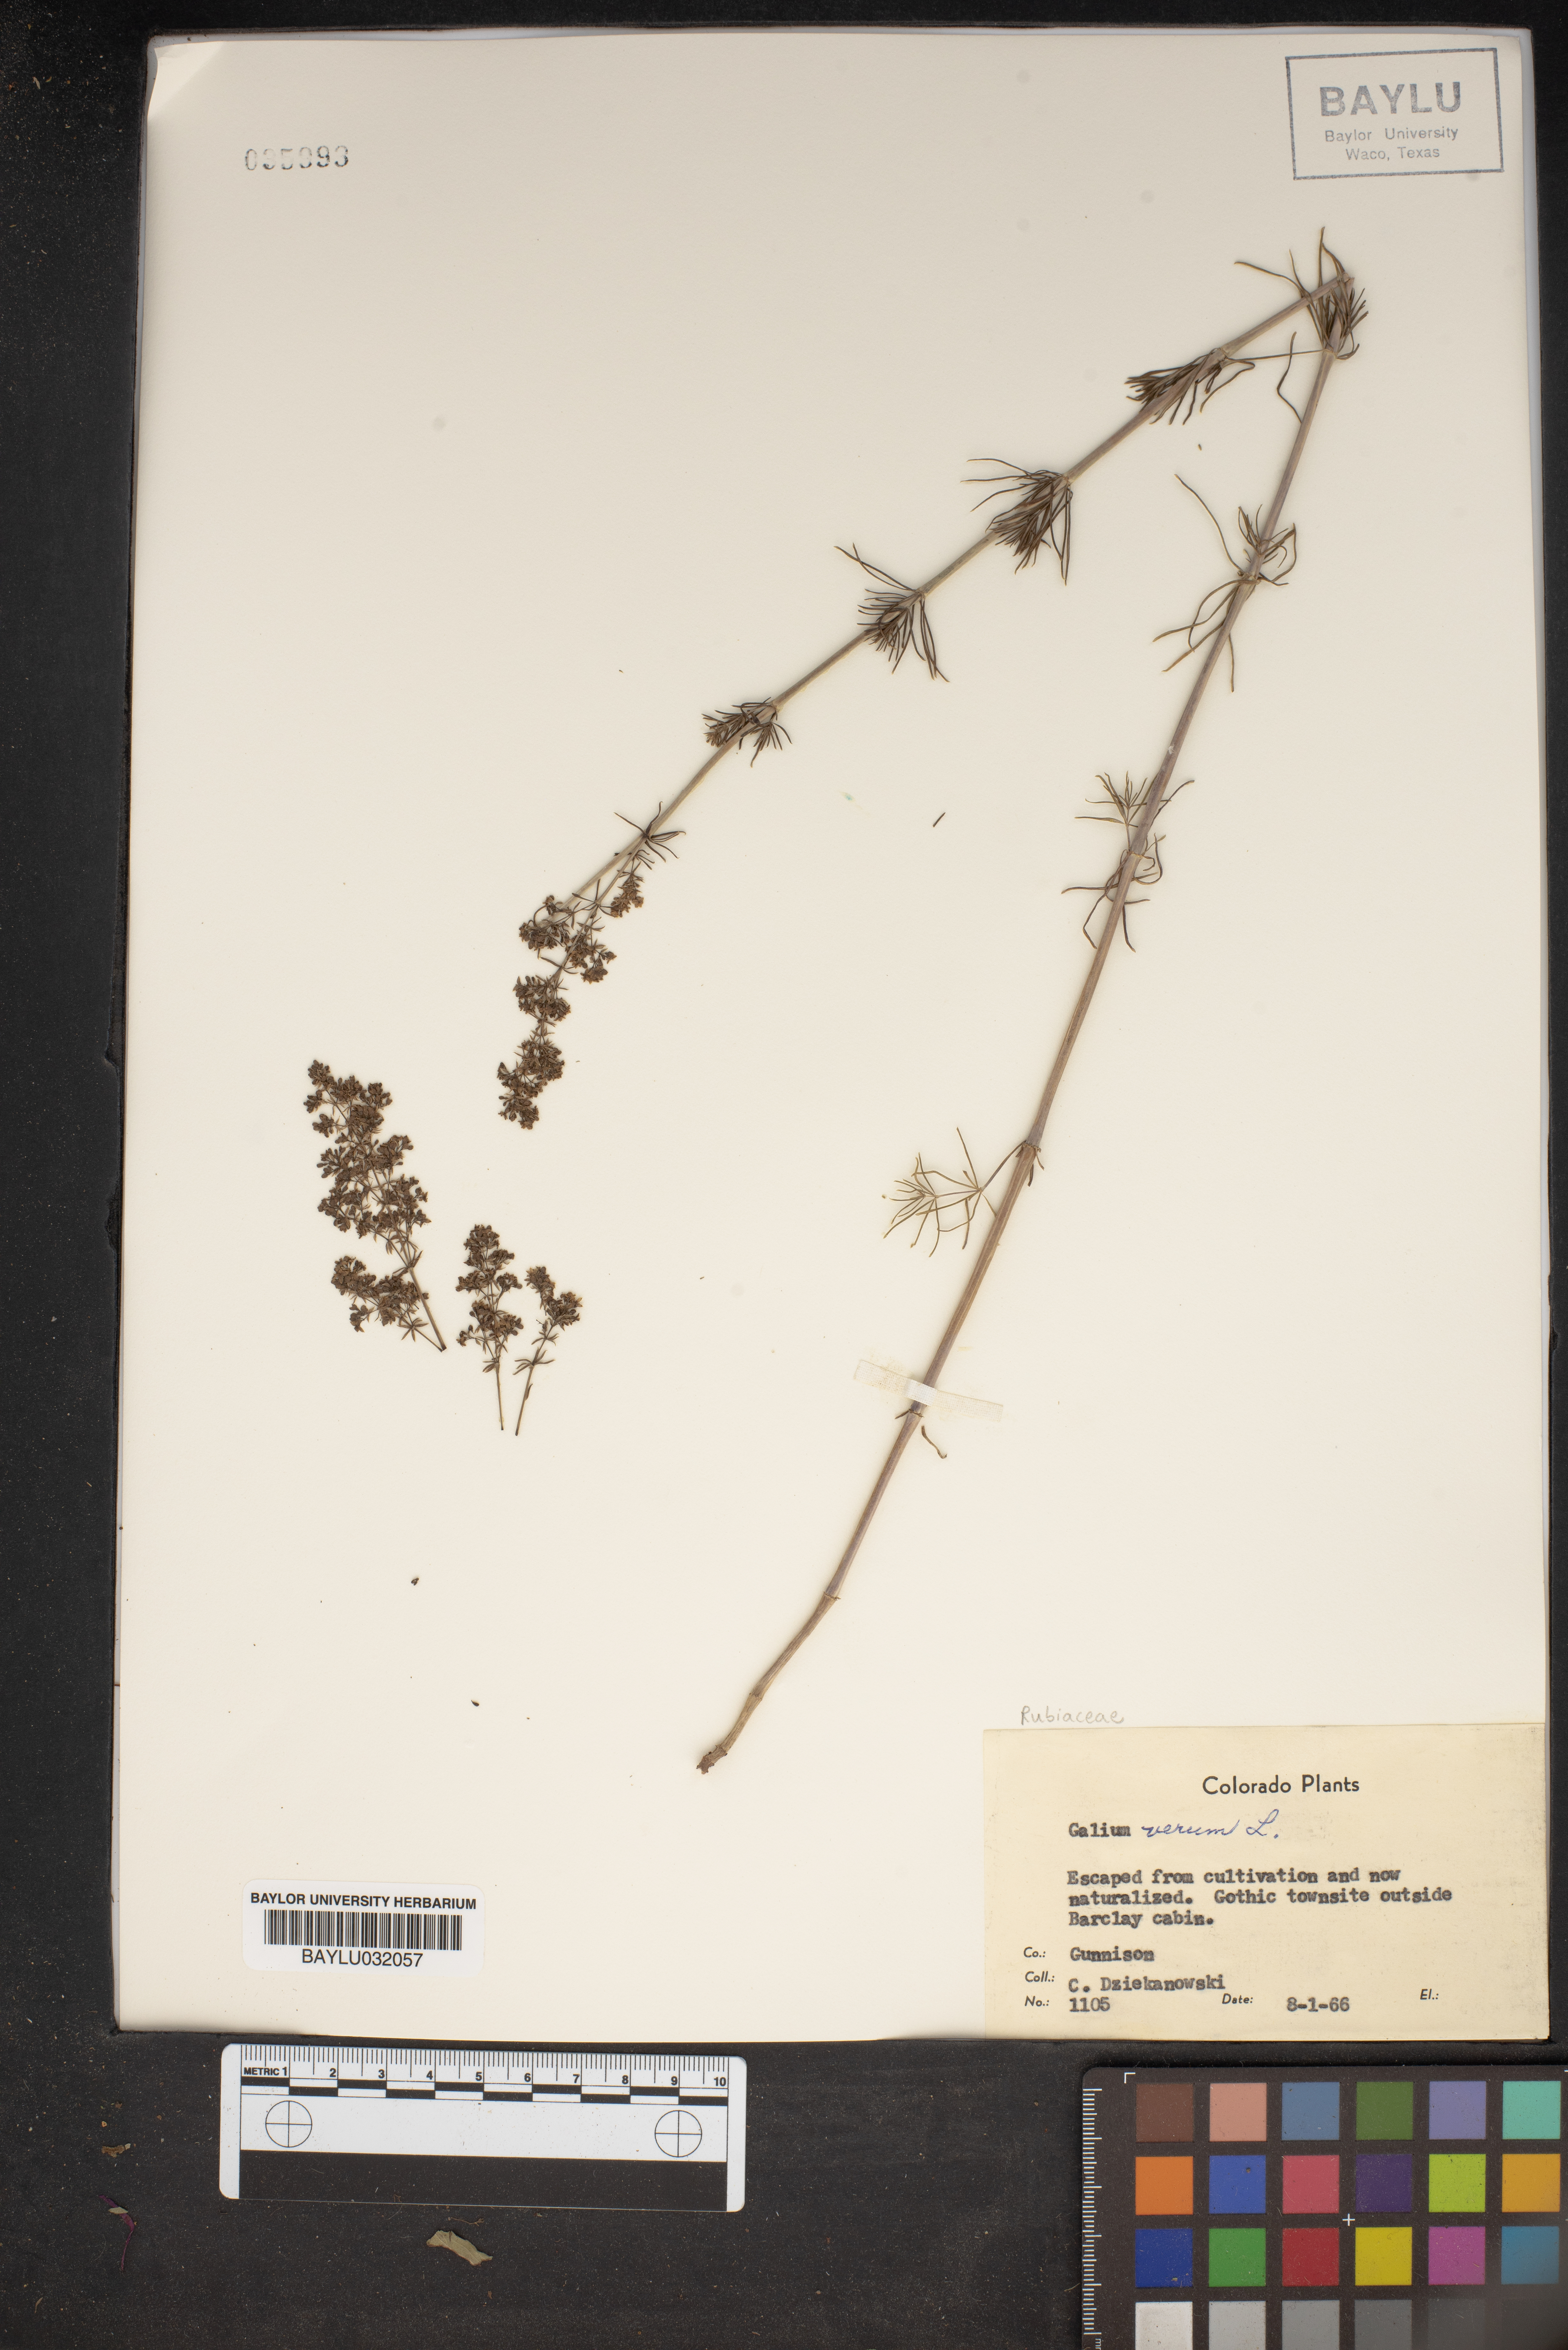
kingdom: Plantae
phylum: Tracheophyta
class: Magnoliopsida
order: Gentianales
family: Rubiaceae
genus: Galium
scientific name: Galium cryptanthum
